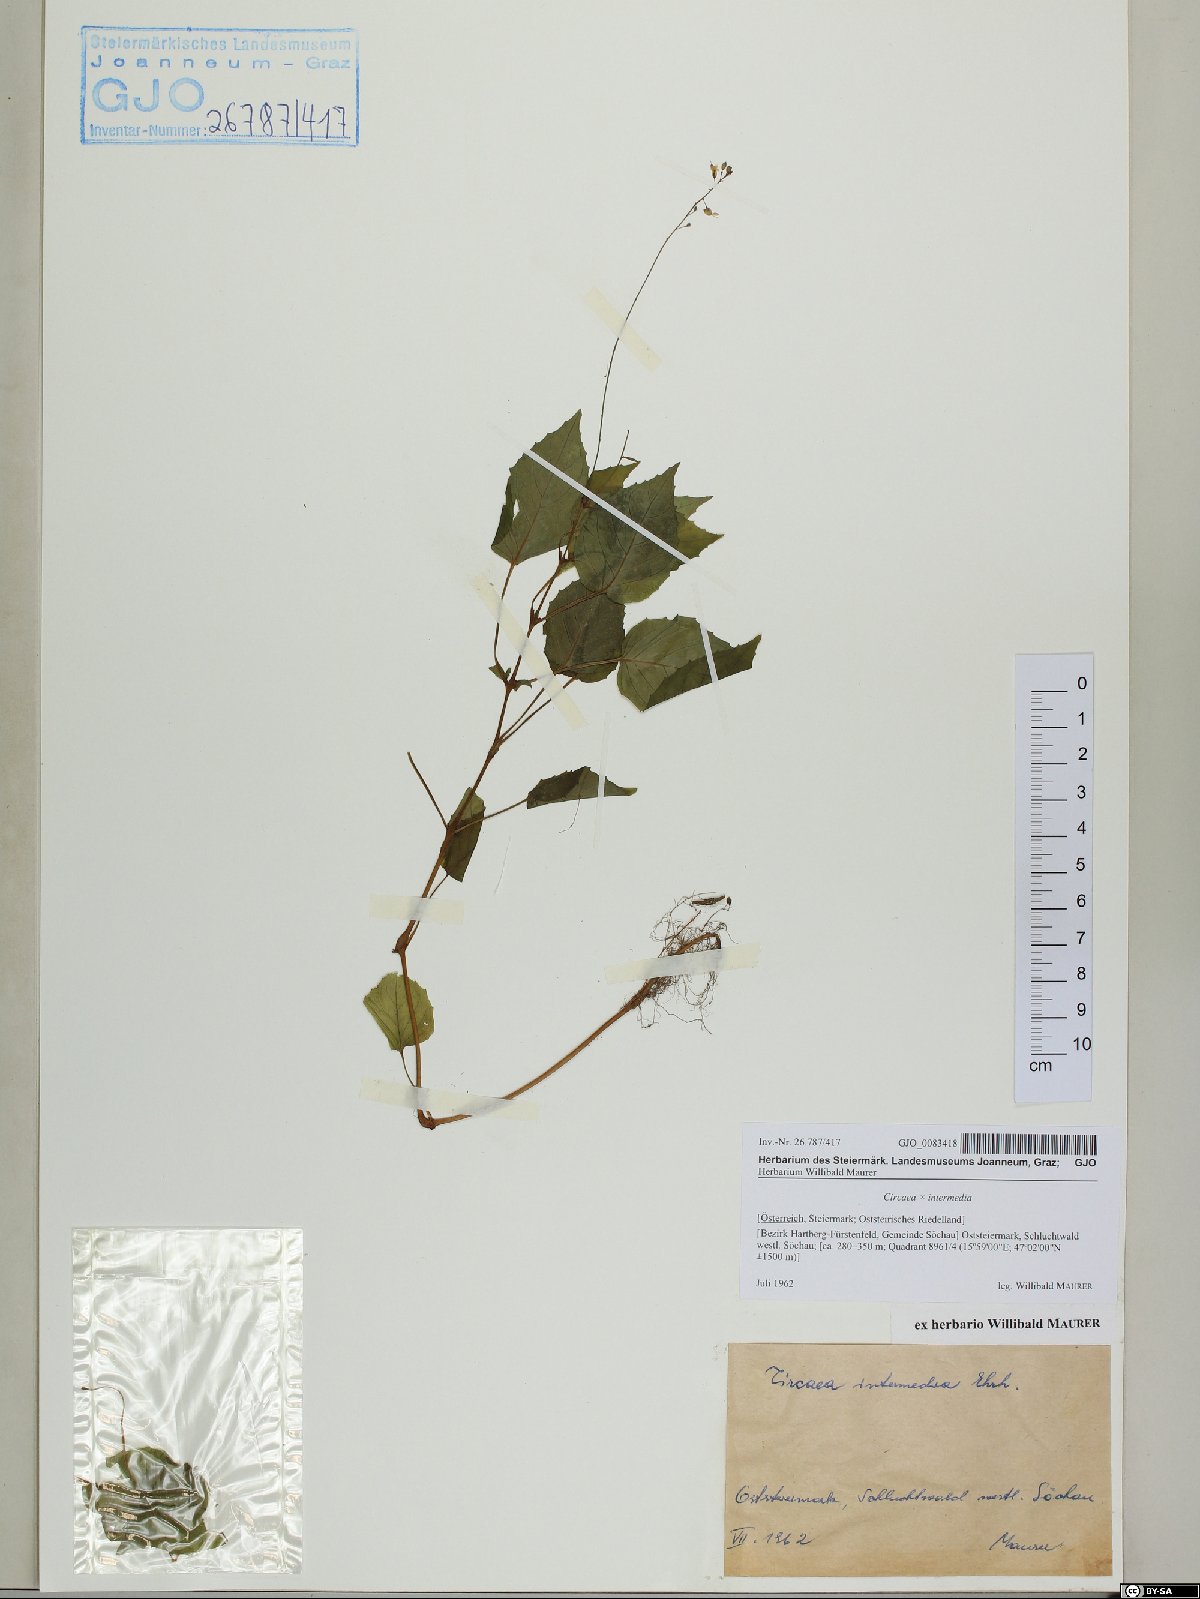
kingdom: Plantae
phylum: Tracheophyta
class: Magnoliopsida
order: Myrtales
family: Onagraceae
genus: Circaea
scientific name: Circaea intermedia
